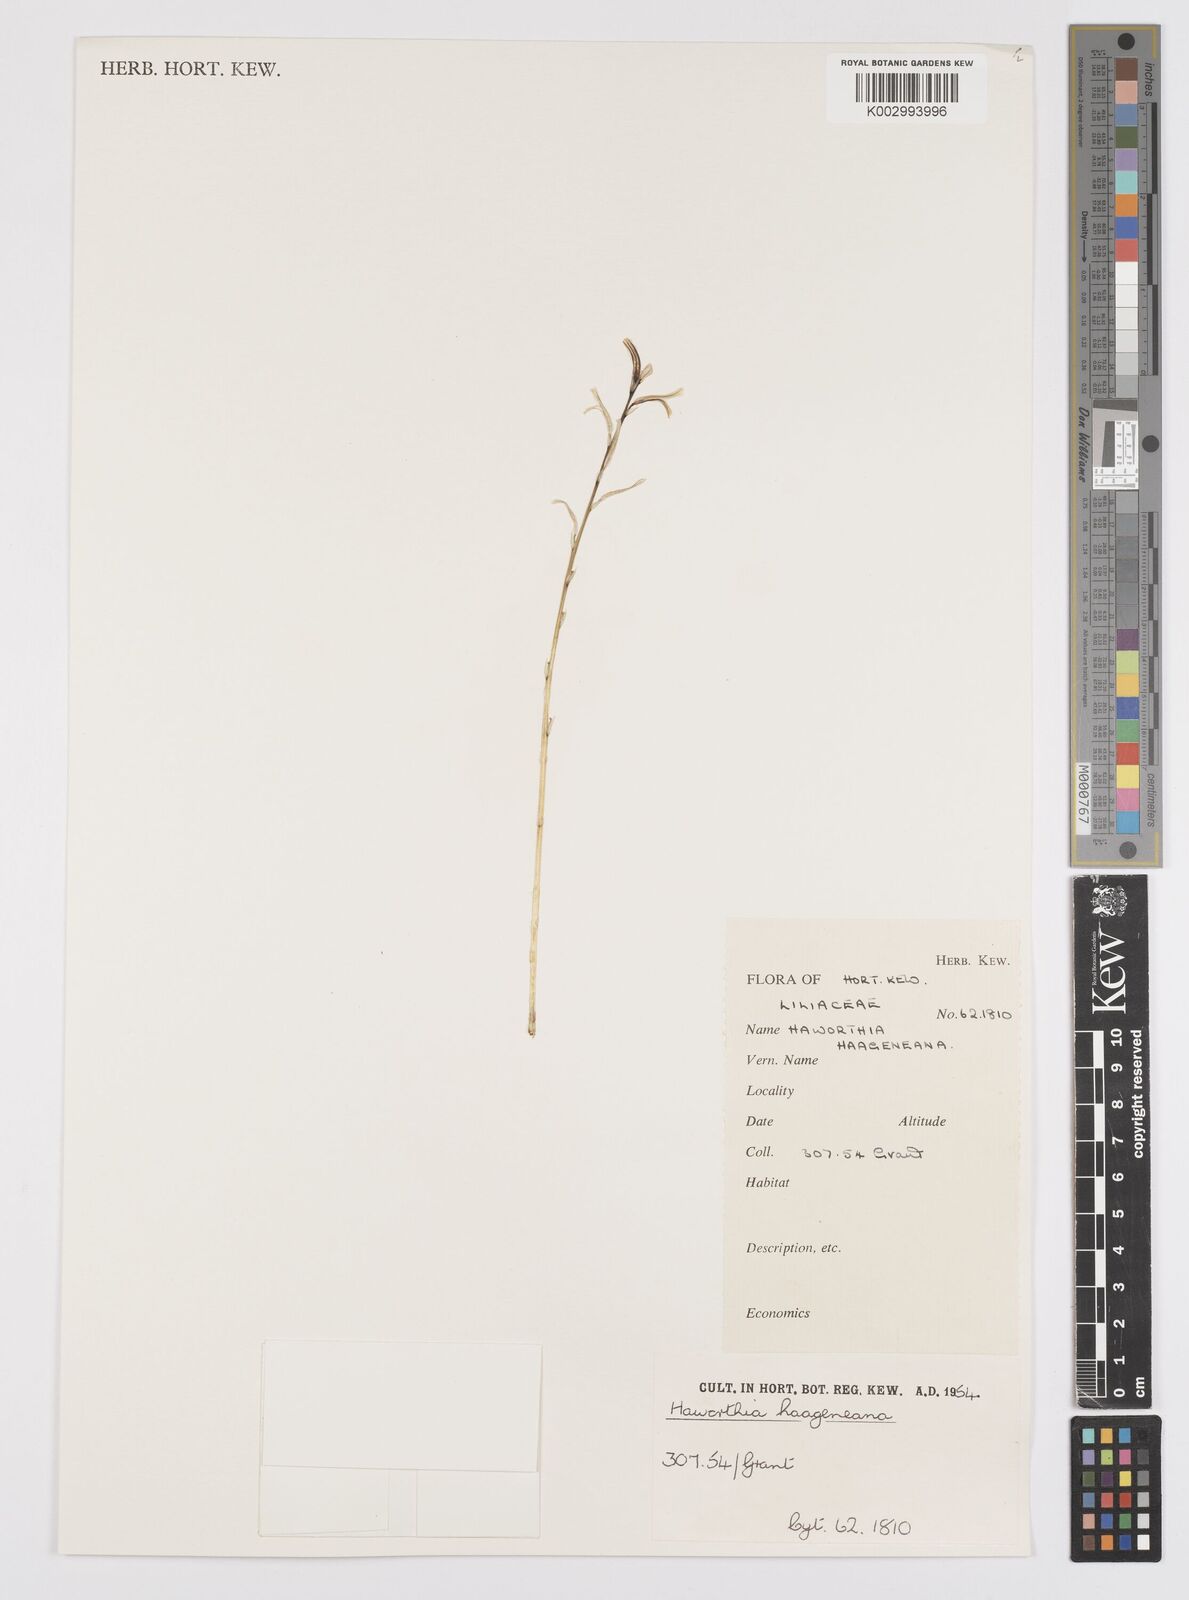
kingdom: Plantae
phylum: Tracheophyta
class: Liliopsida
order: Asparagales
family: Asphodelaceae
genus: Haworthia
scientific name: Haworthia reticulata
